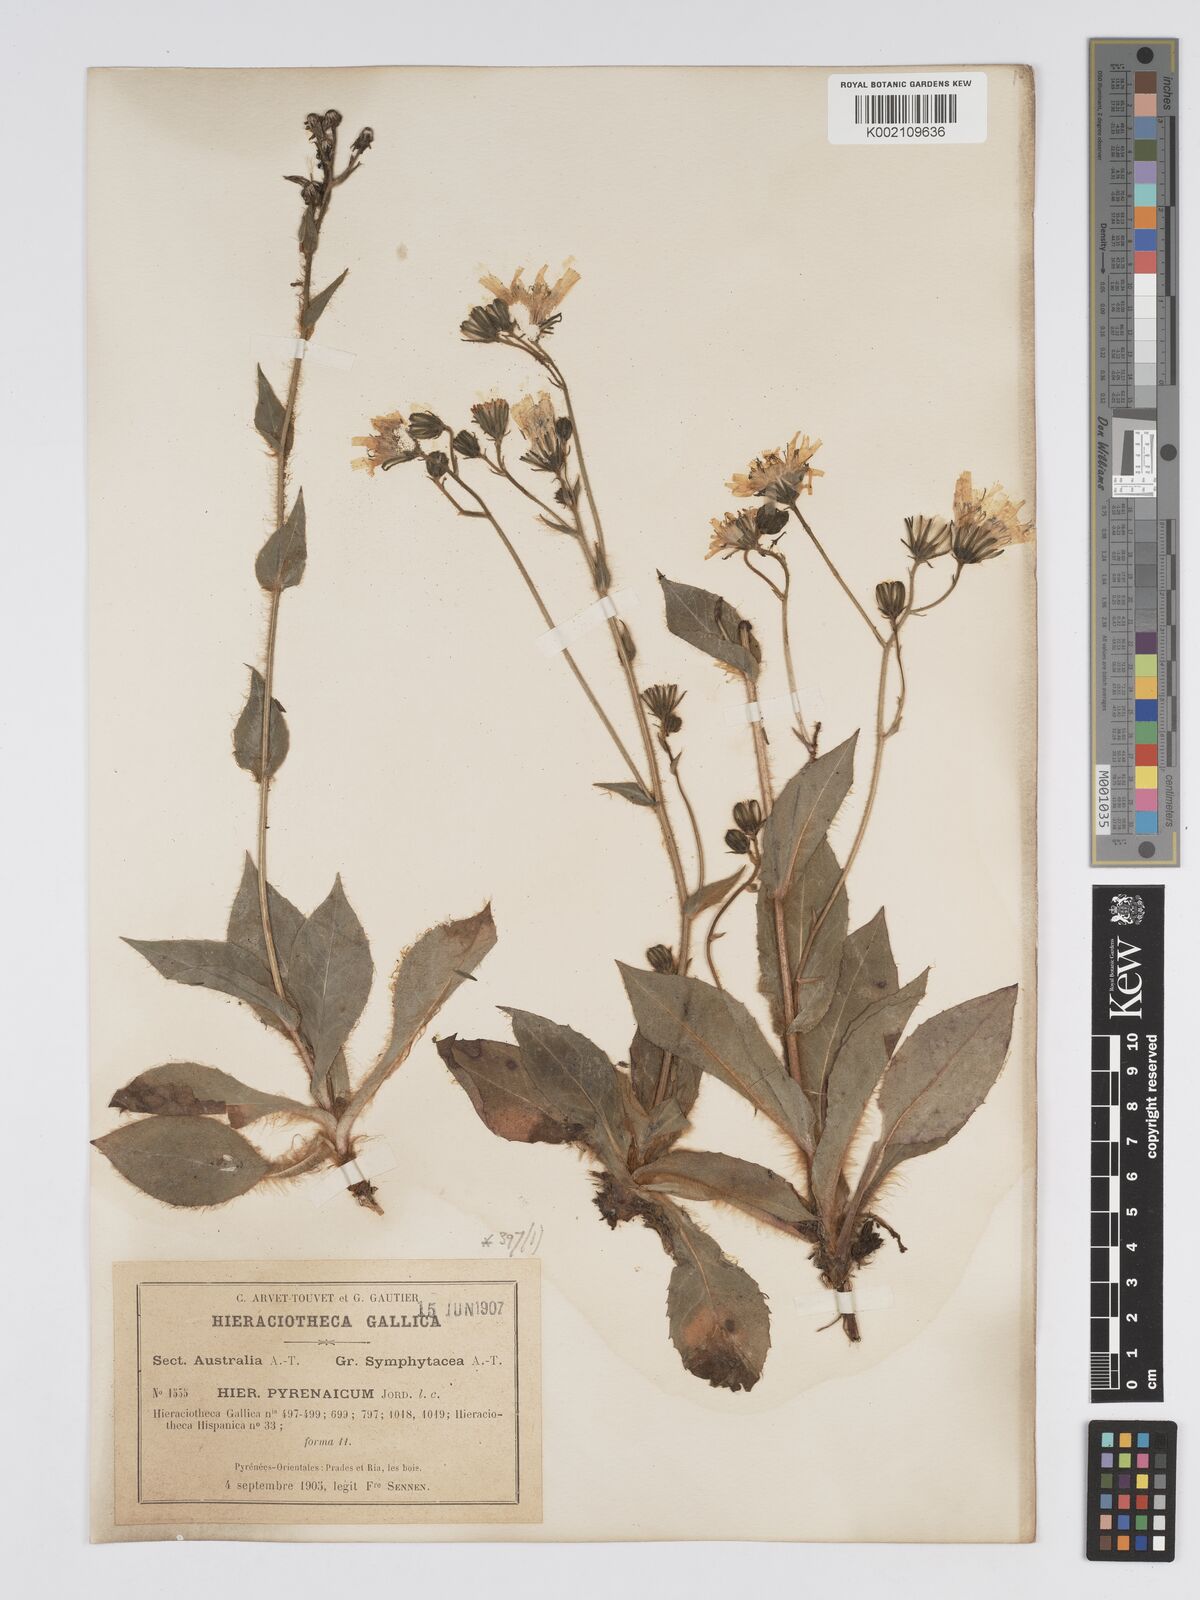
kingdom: Plantae
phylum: Tracheophyta
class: Magnoliopsida
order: Asterales
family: Asteraceae
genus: Hieracium
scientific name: Hieracium nobile
